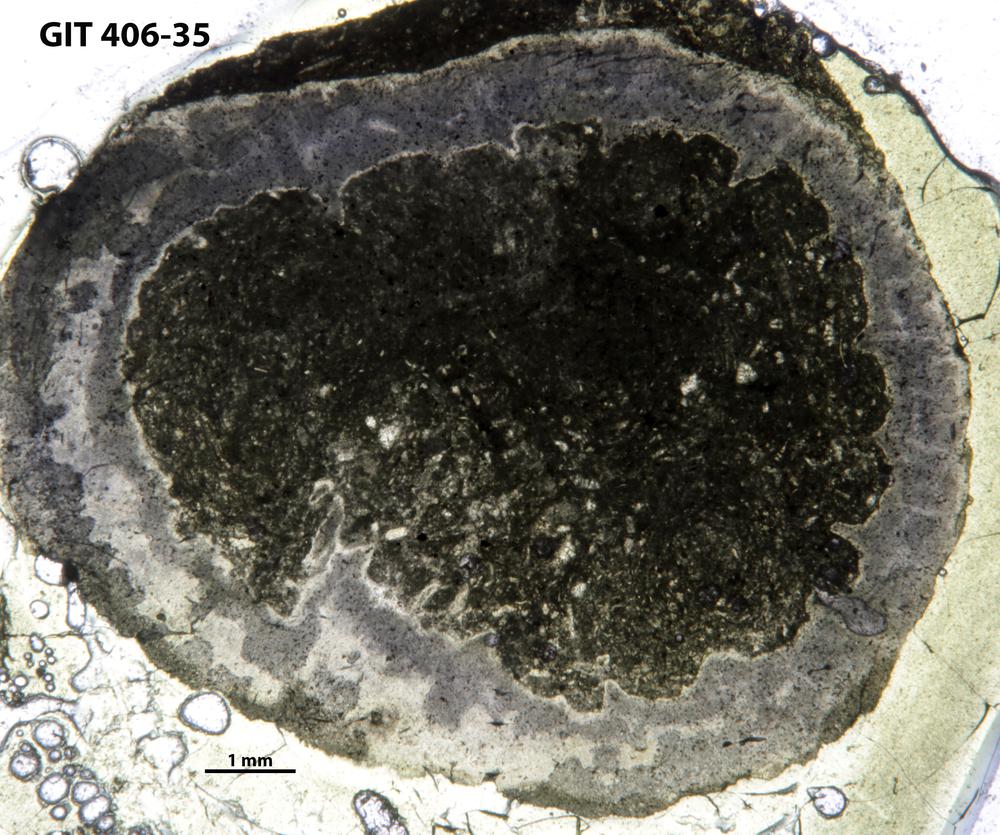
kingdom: Animalia
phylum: Cnidaria
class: Anthozoa
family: Palaeocyclidae
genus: Rhabdocyclus
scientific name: Rhabdocyclus aequispinatus
